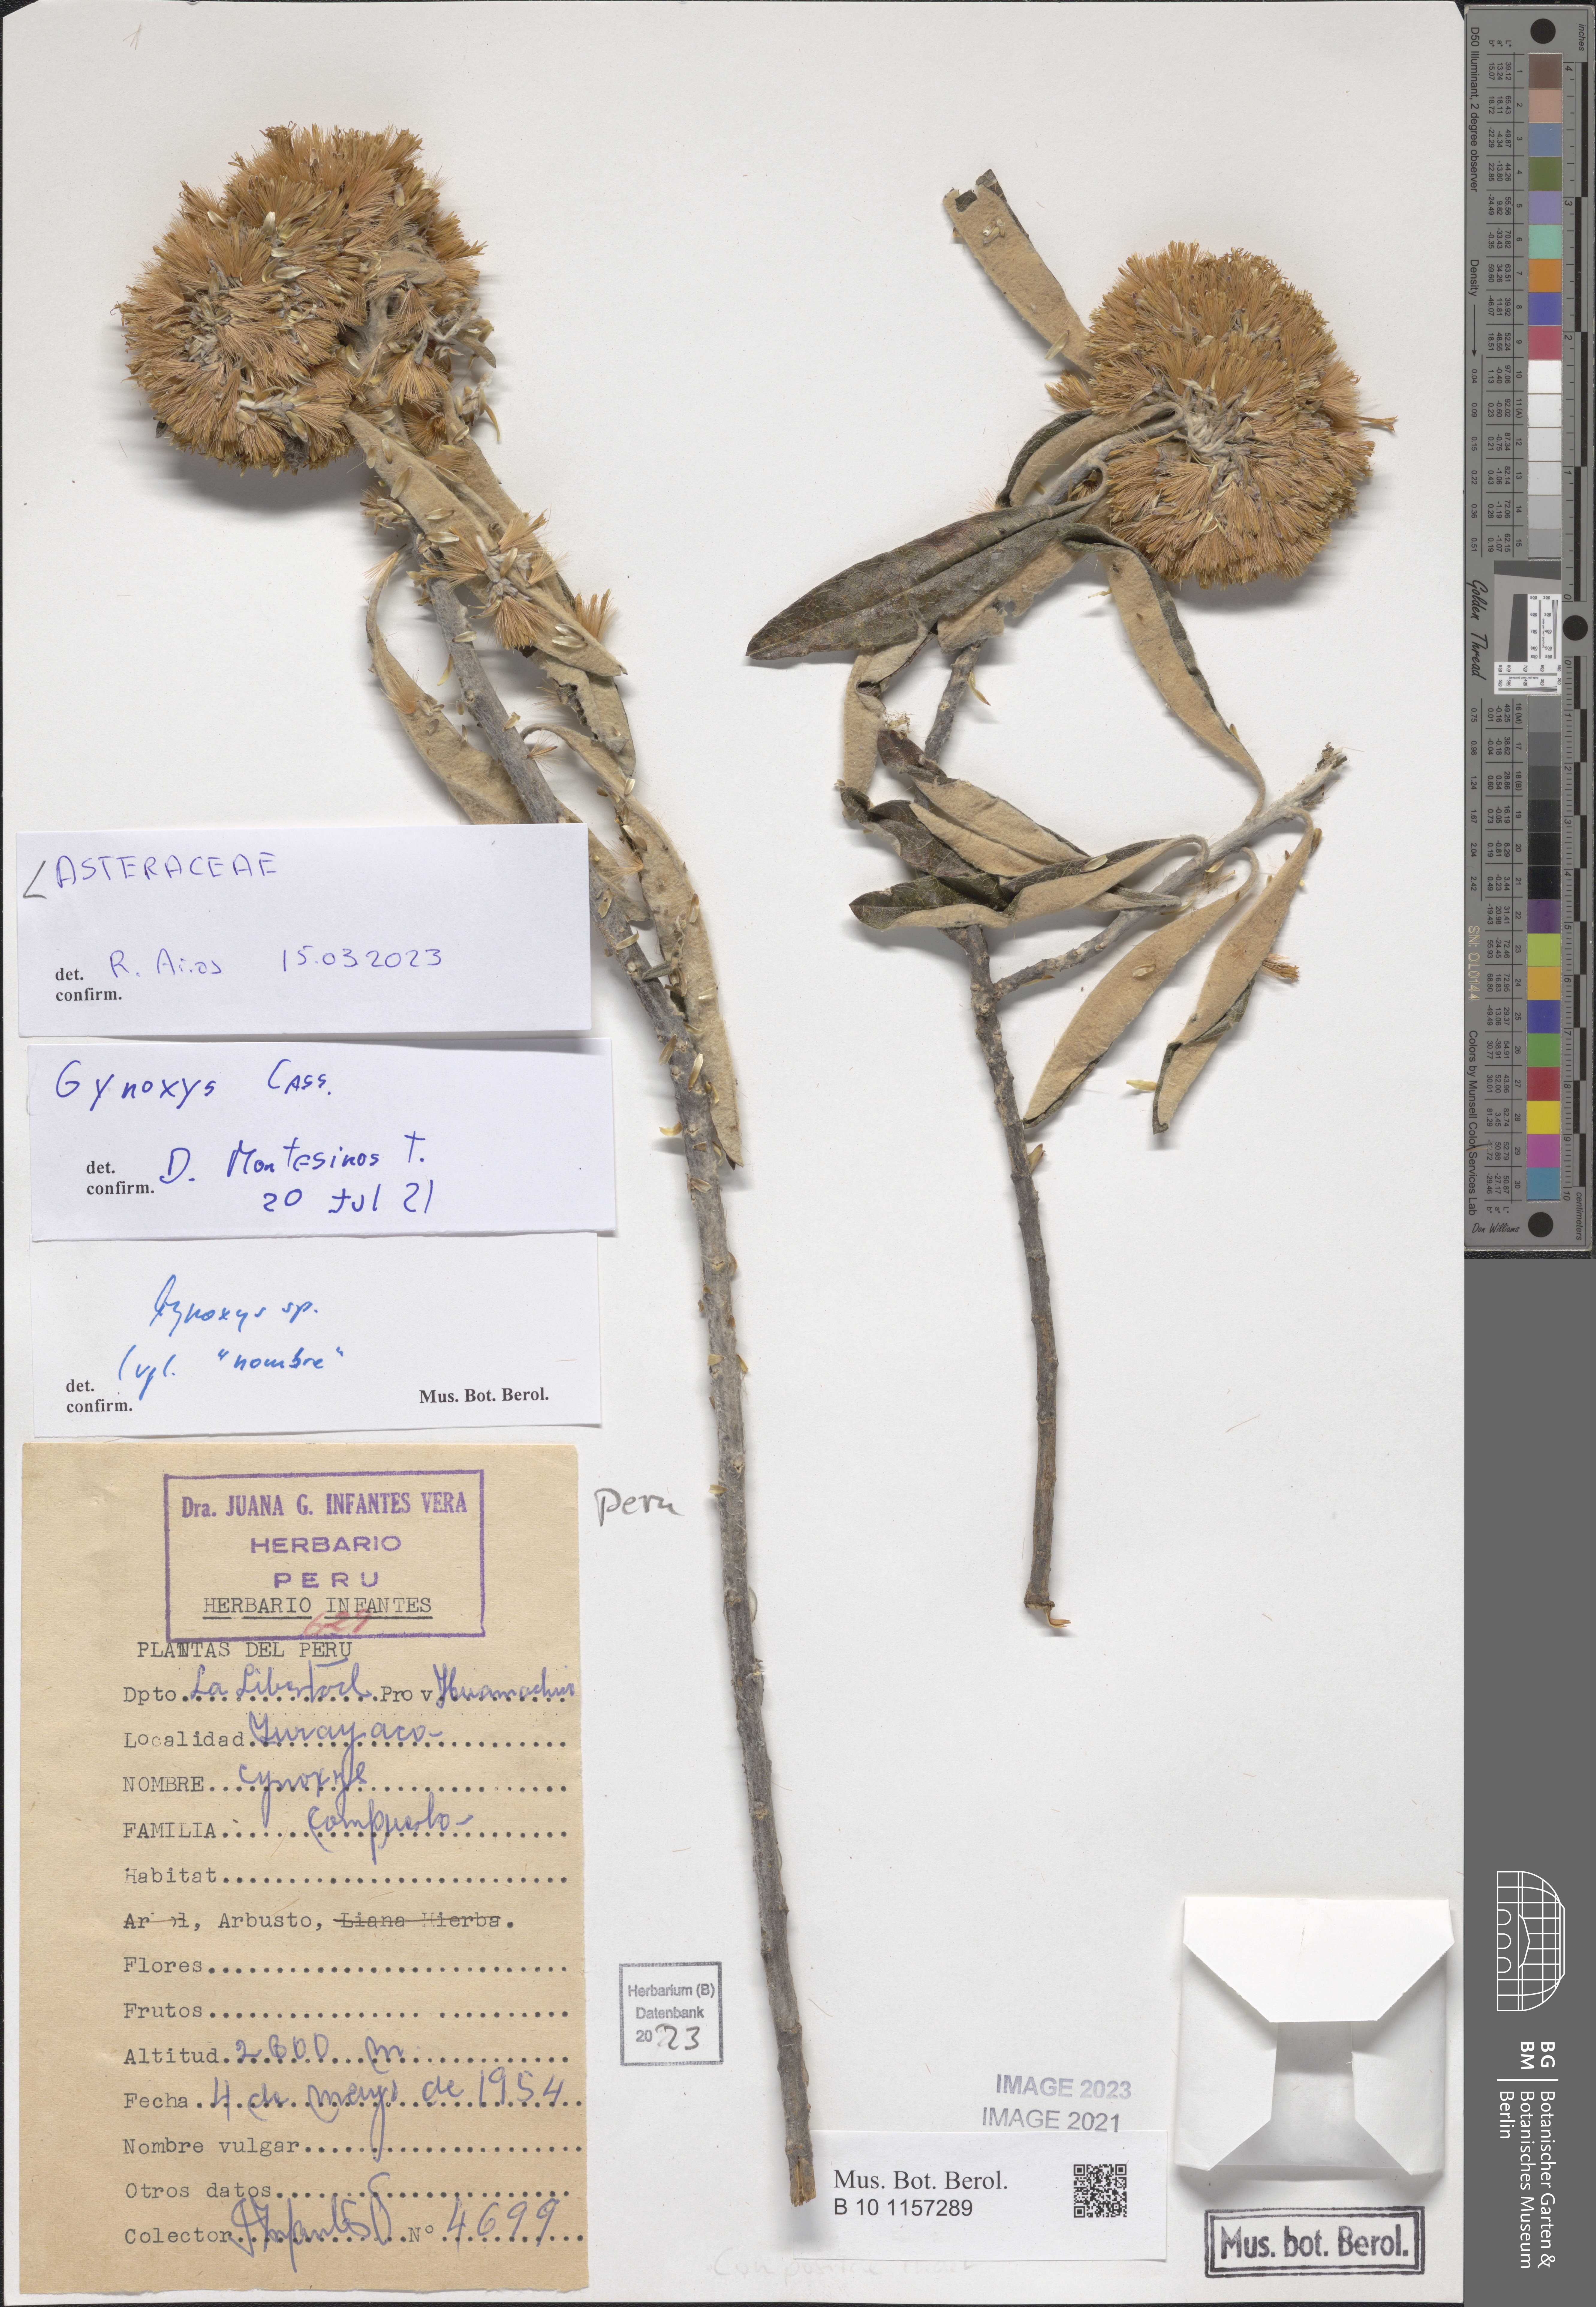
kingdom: Plantae
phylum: Tracheophyta
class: Magnoliopsida
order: Asterales
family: Asteraceae
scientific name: Asteraceae
